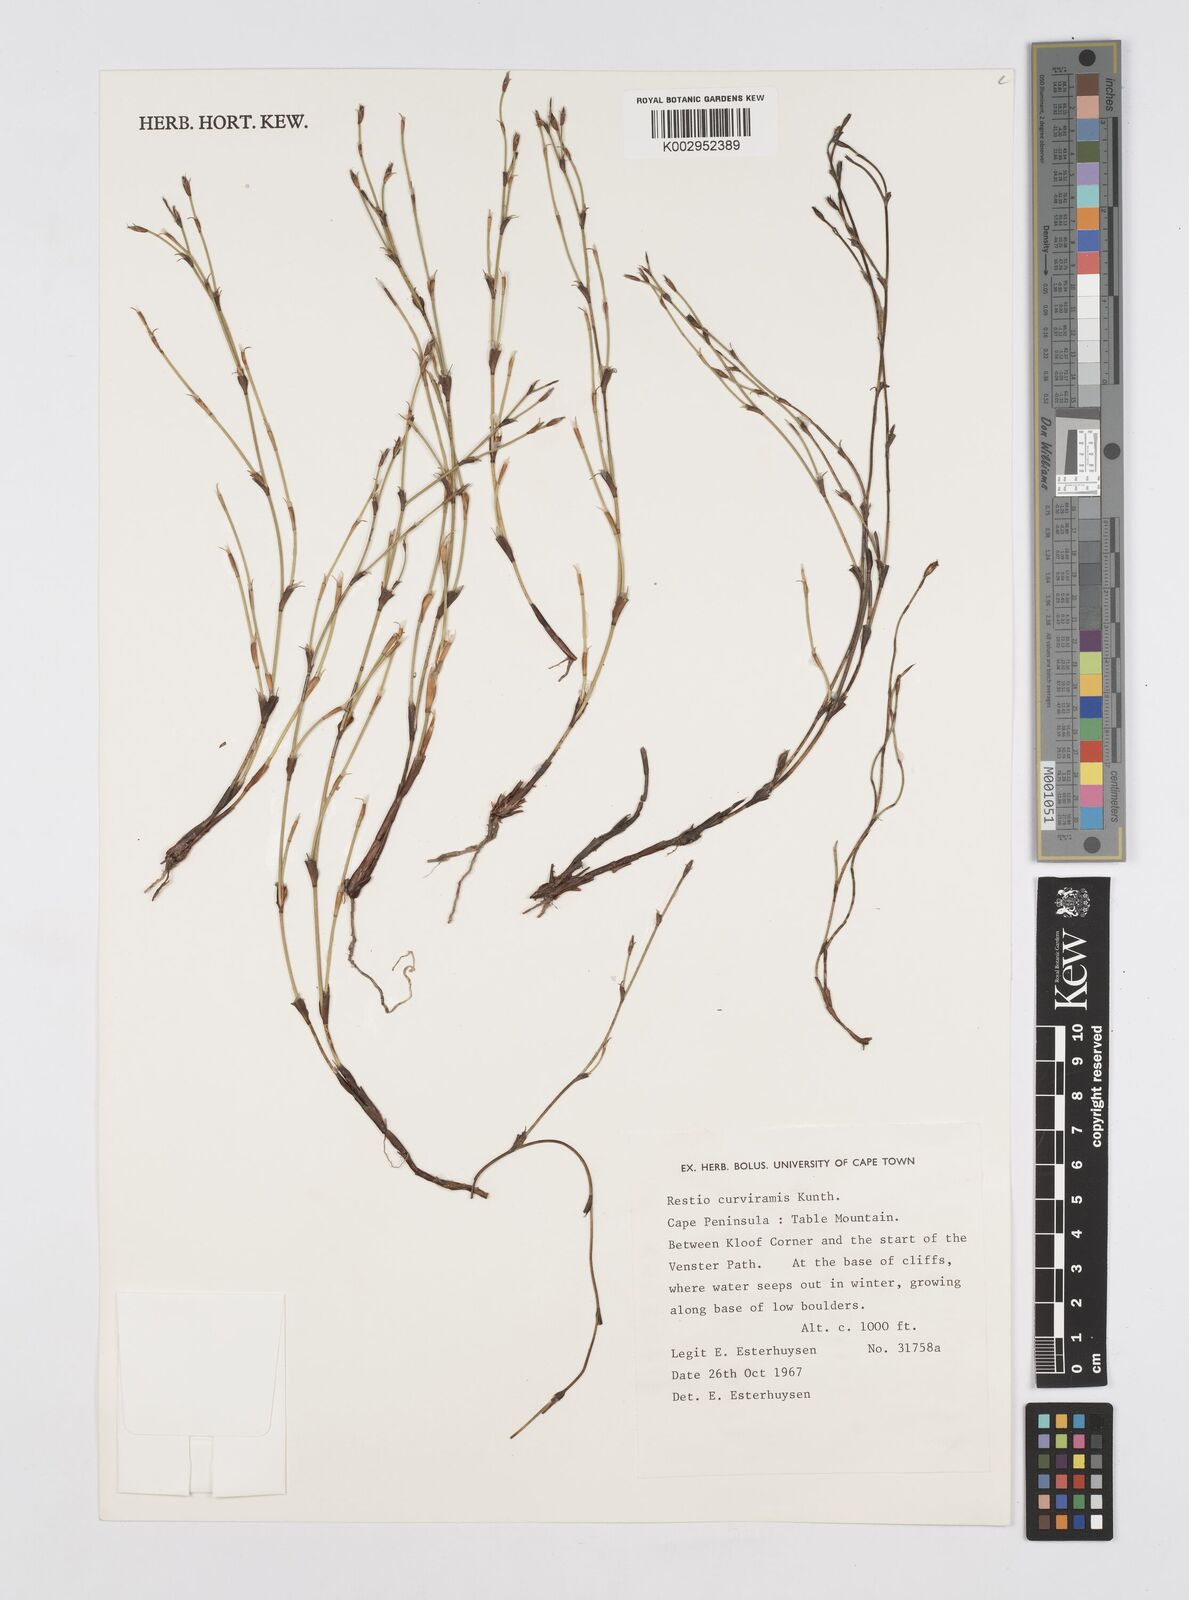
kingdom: Plantae
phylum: Tracheophyta
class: Liliopsida
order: Poales
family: Restionaceae
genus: Restio
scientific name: Restio curviramis
